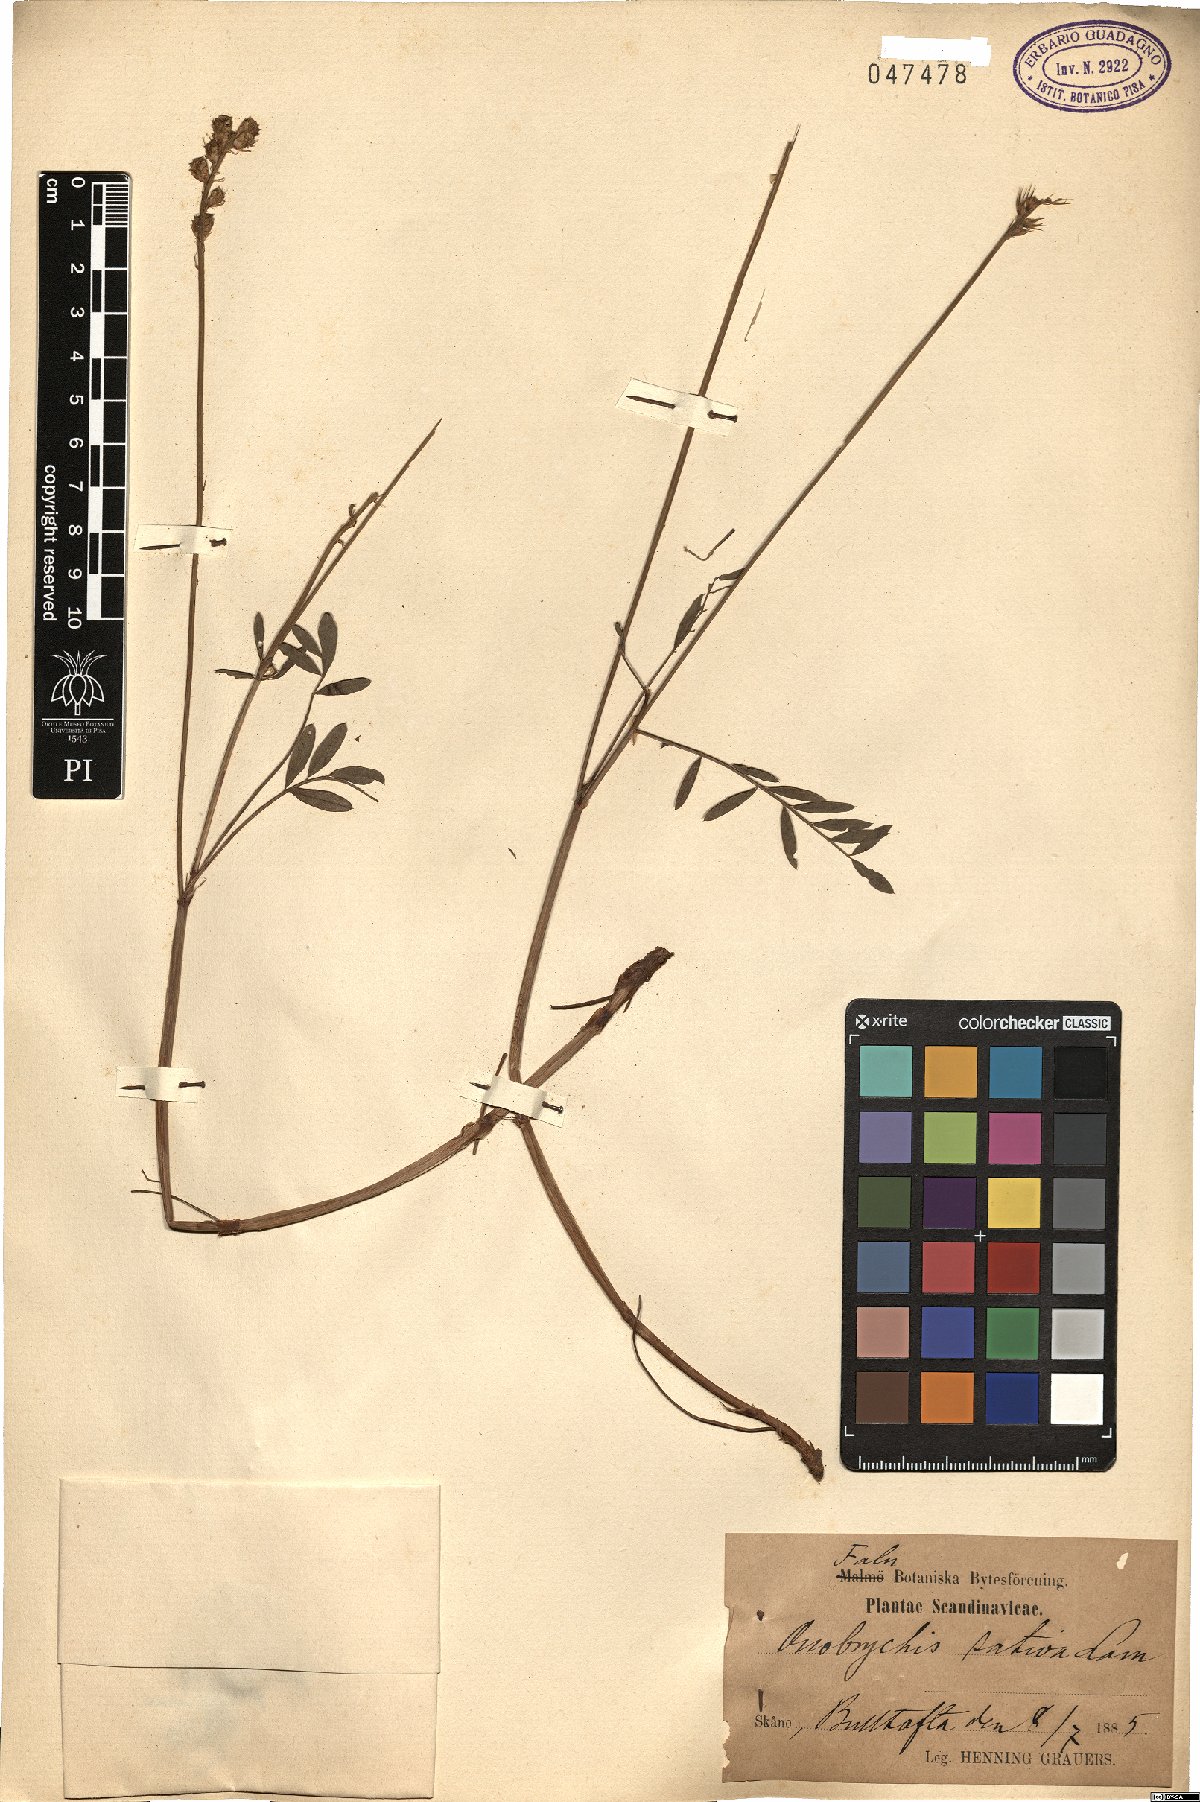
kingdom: Plantae
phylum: Tracheophyta
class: Magnoliopsida
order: Fabales
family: Fabaceae
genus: Onobrychis
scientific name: Onobrychis viciifolia
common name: Sainfoin
